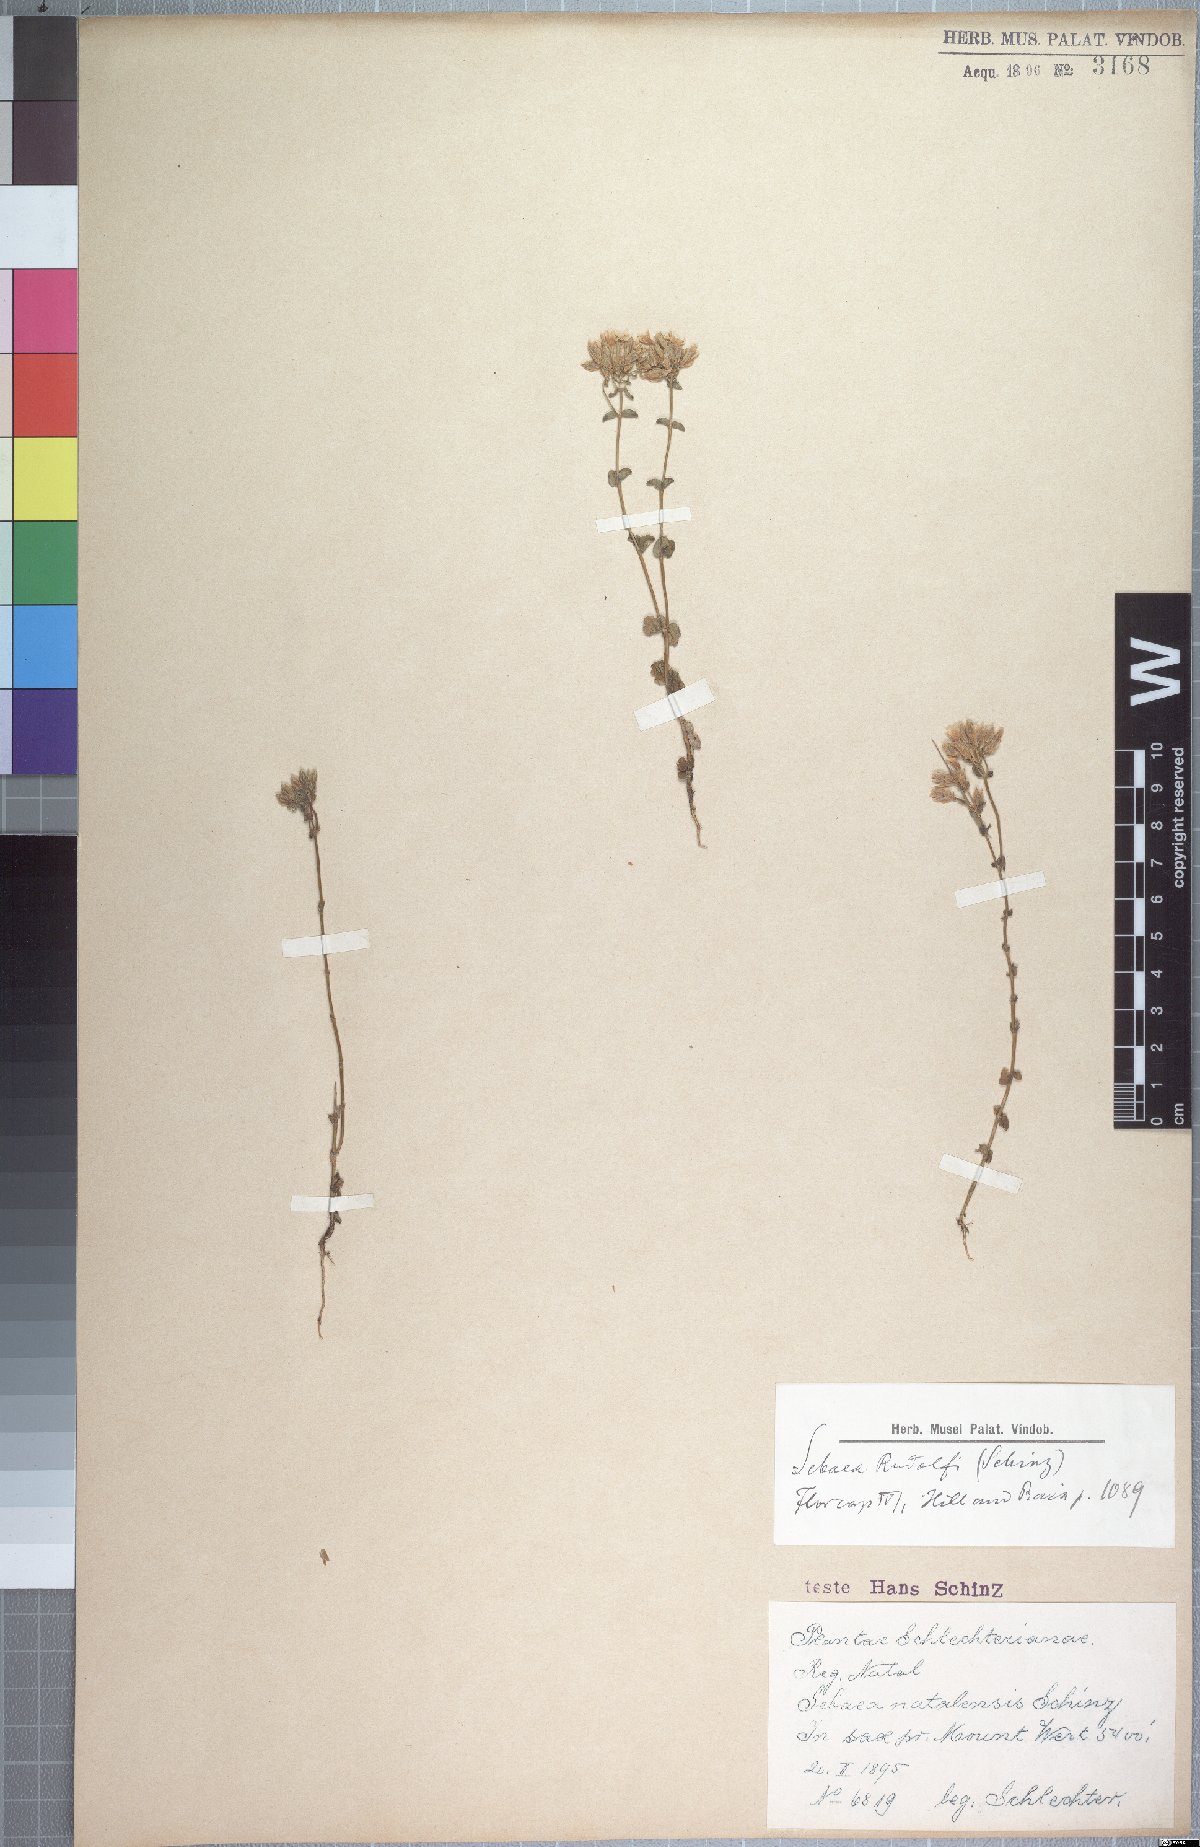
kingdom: Plantae
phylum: Tracheophyta
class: Magnoliopsida
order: Gentianales
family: Gentianaceae
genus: Sebaea
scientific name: Sebaea natalensis
